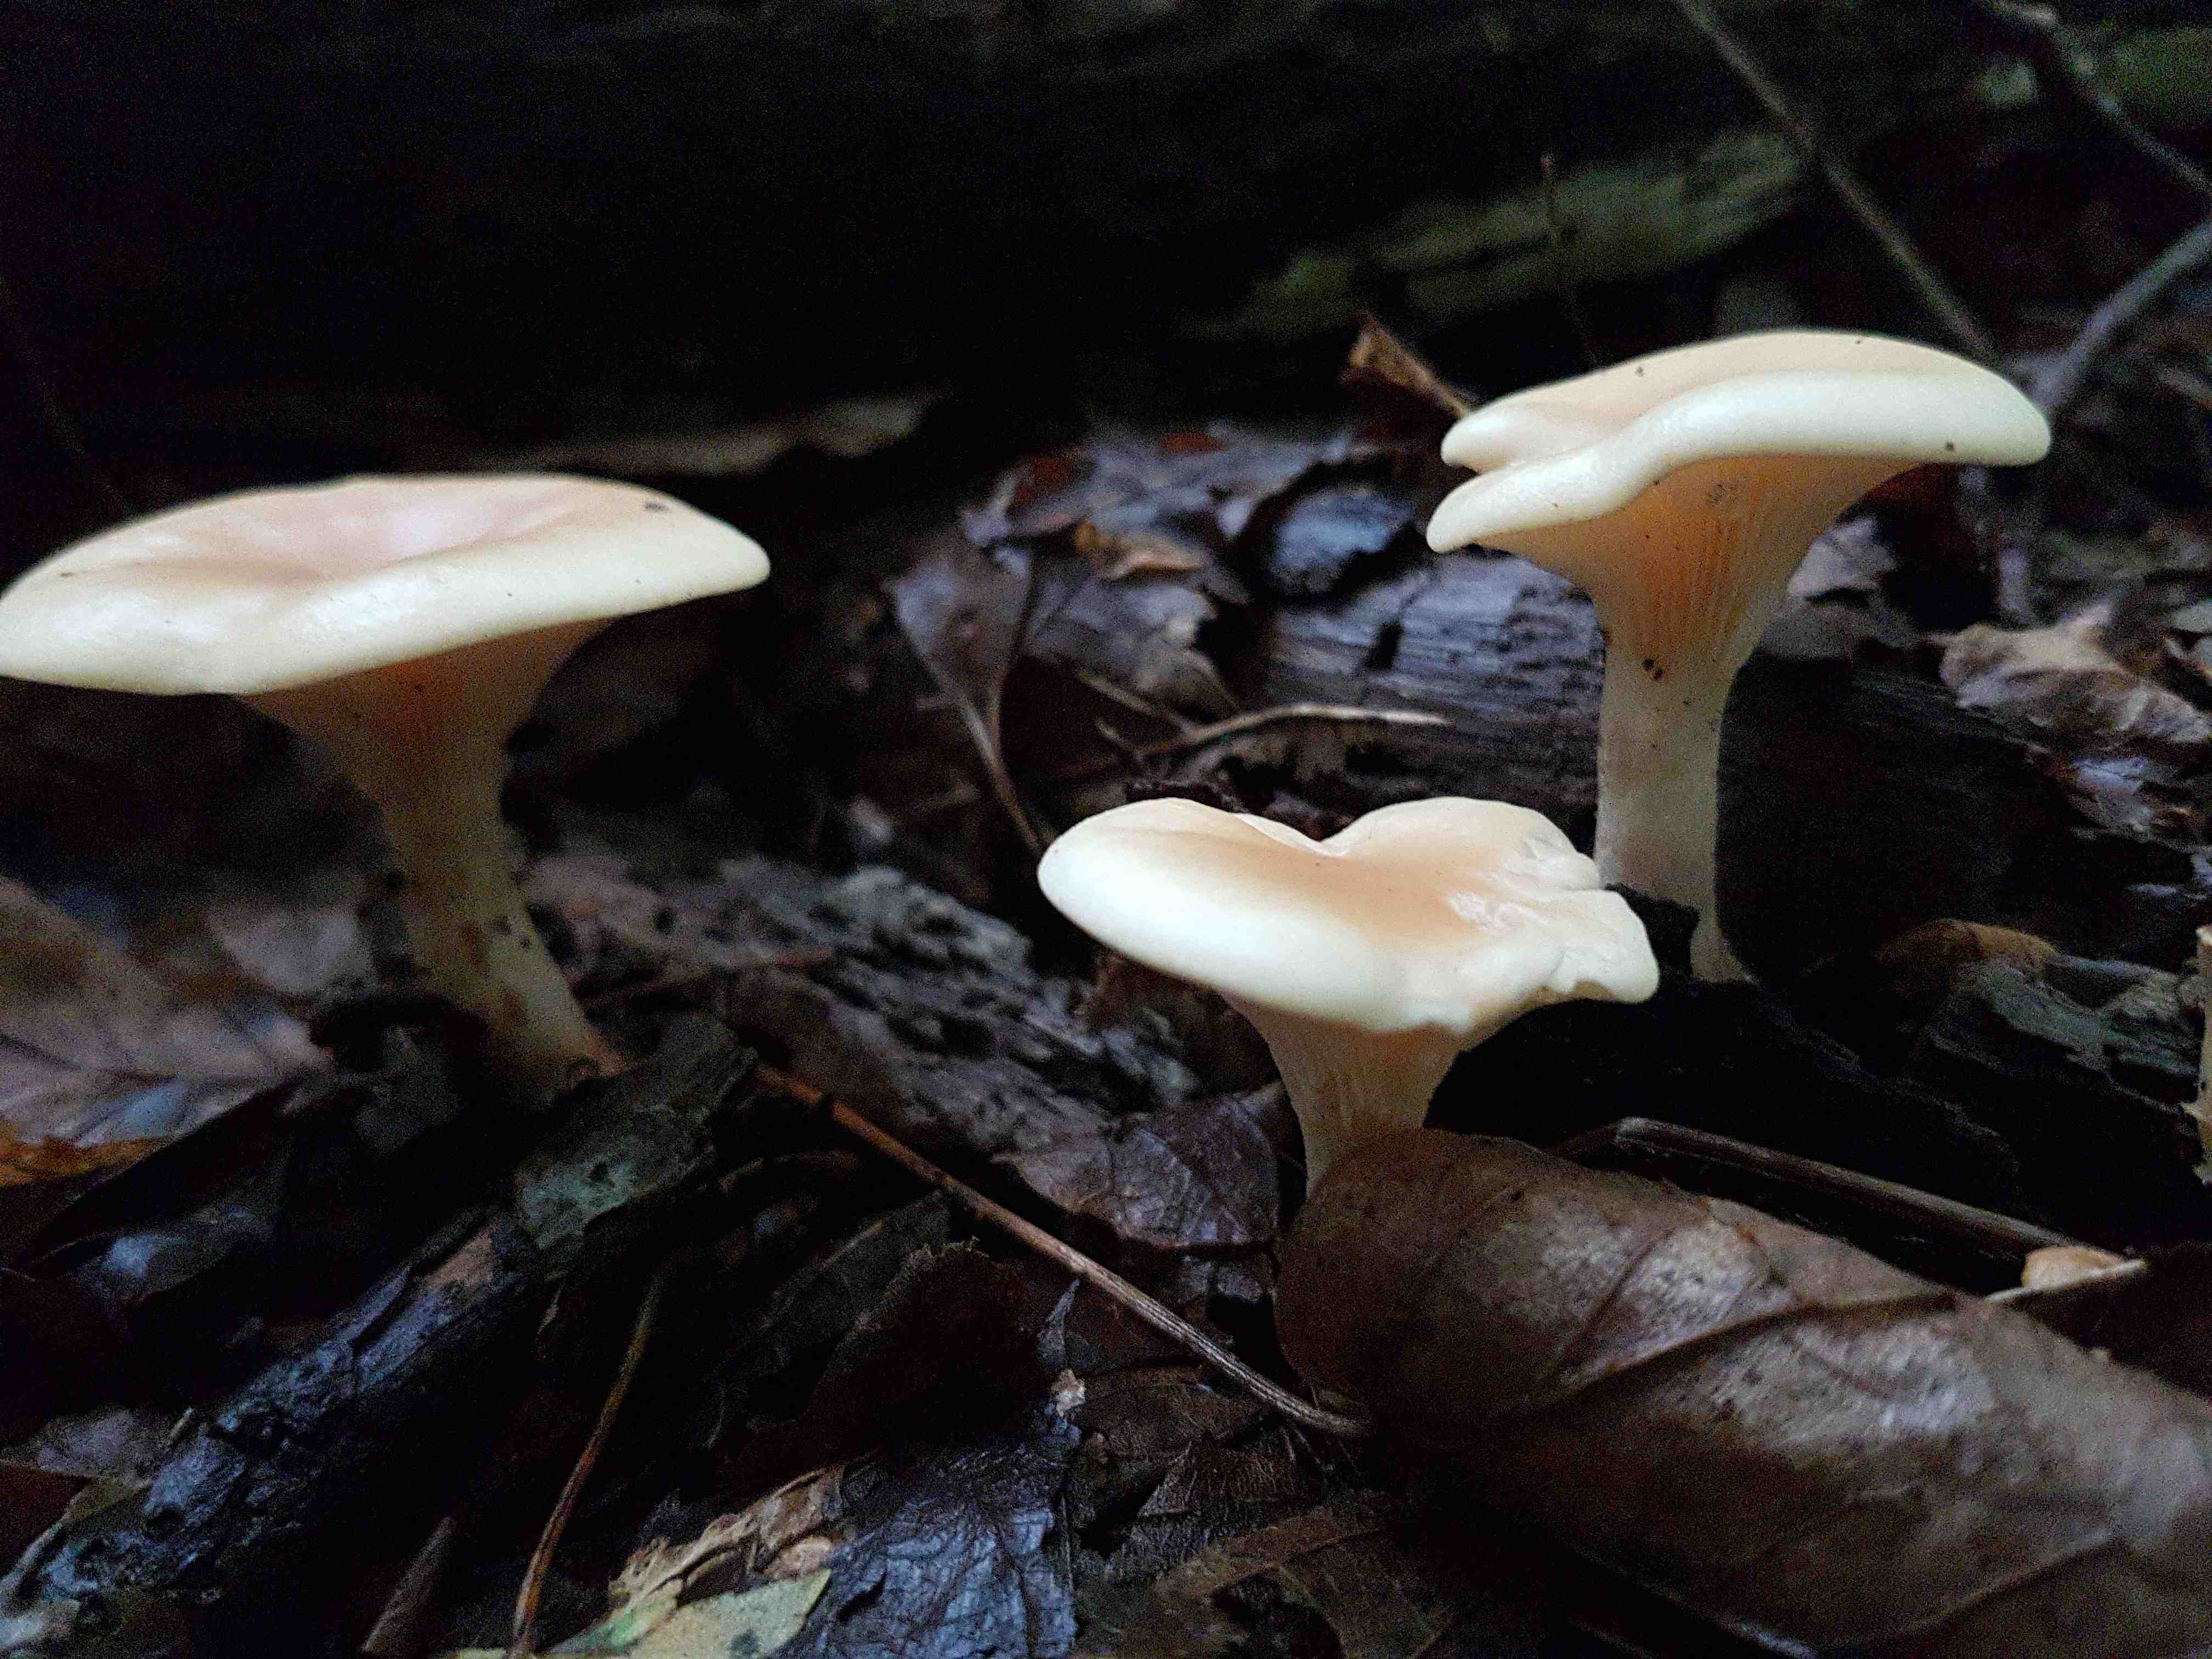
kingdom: Fungi
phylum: Basidiomycota
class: Agaricomycetes
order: Agaricales
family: Tricholomataceae
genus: Paralepista
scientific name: Paralepista flaccida
